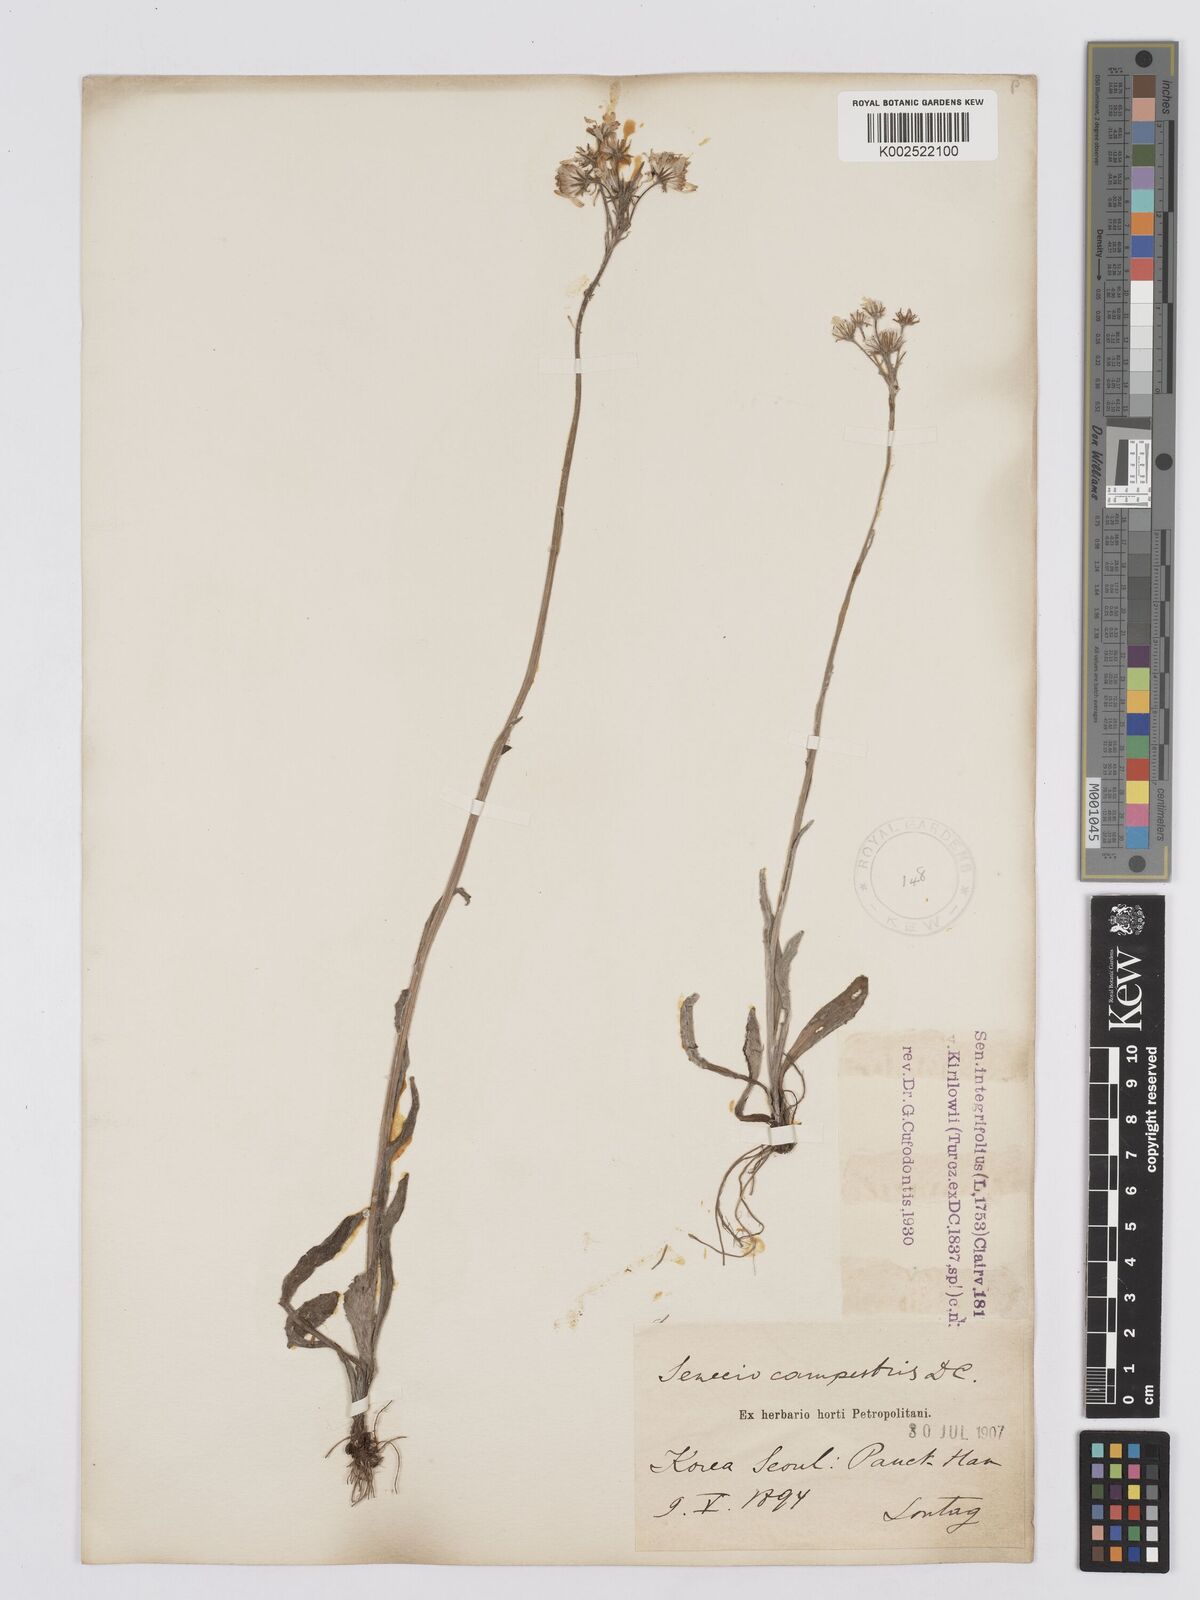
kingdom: Plantae
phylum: Tracheophyta
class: Magnoliopsida
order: Asterales
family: Asteraceae
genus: Tephroseris
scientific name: Tephroseris kirilowii
